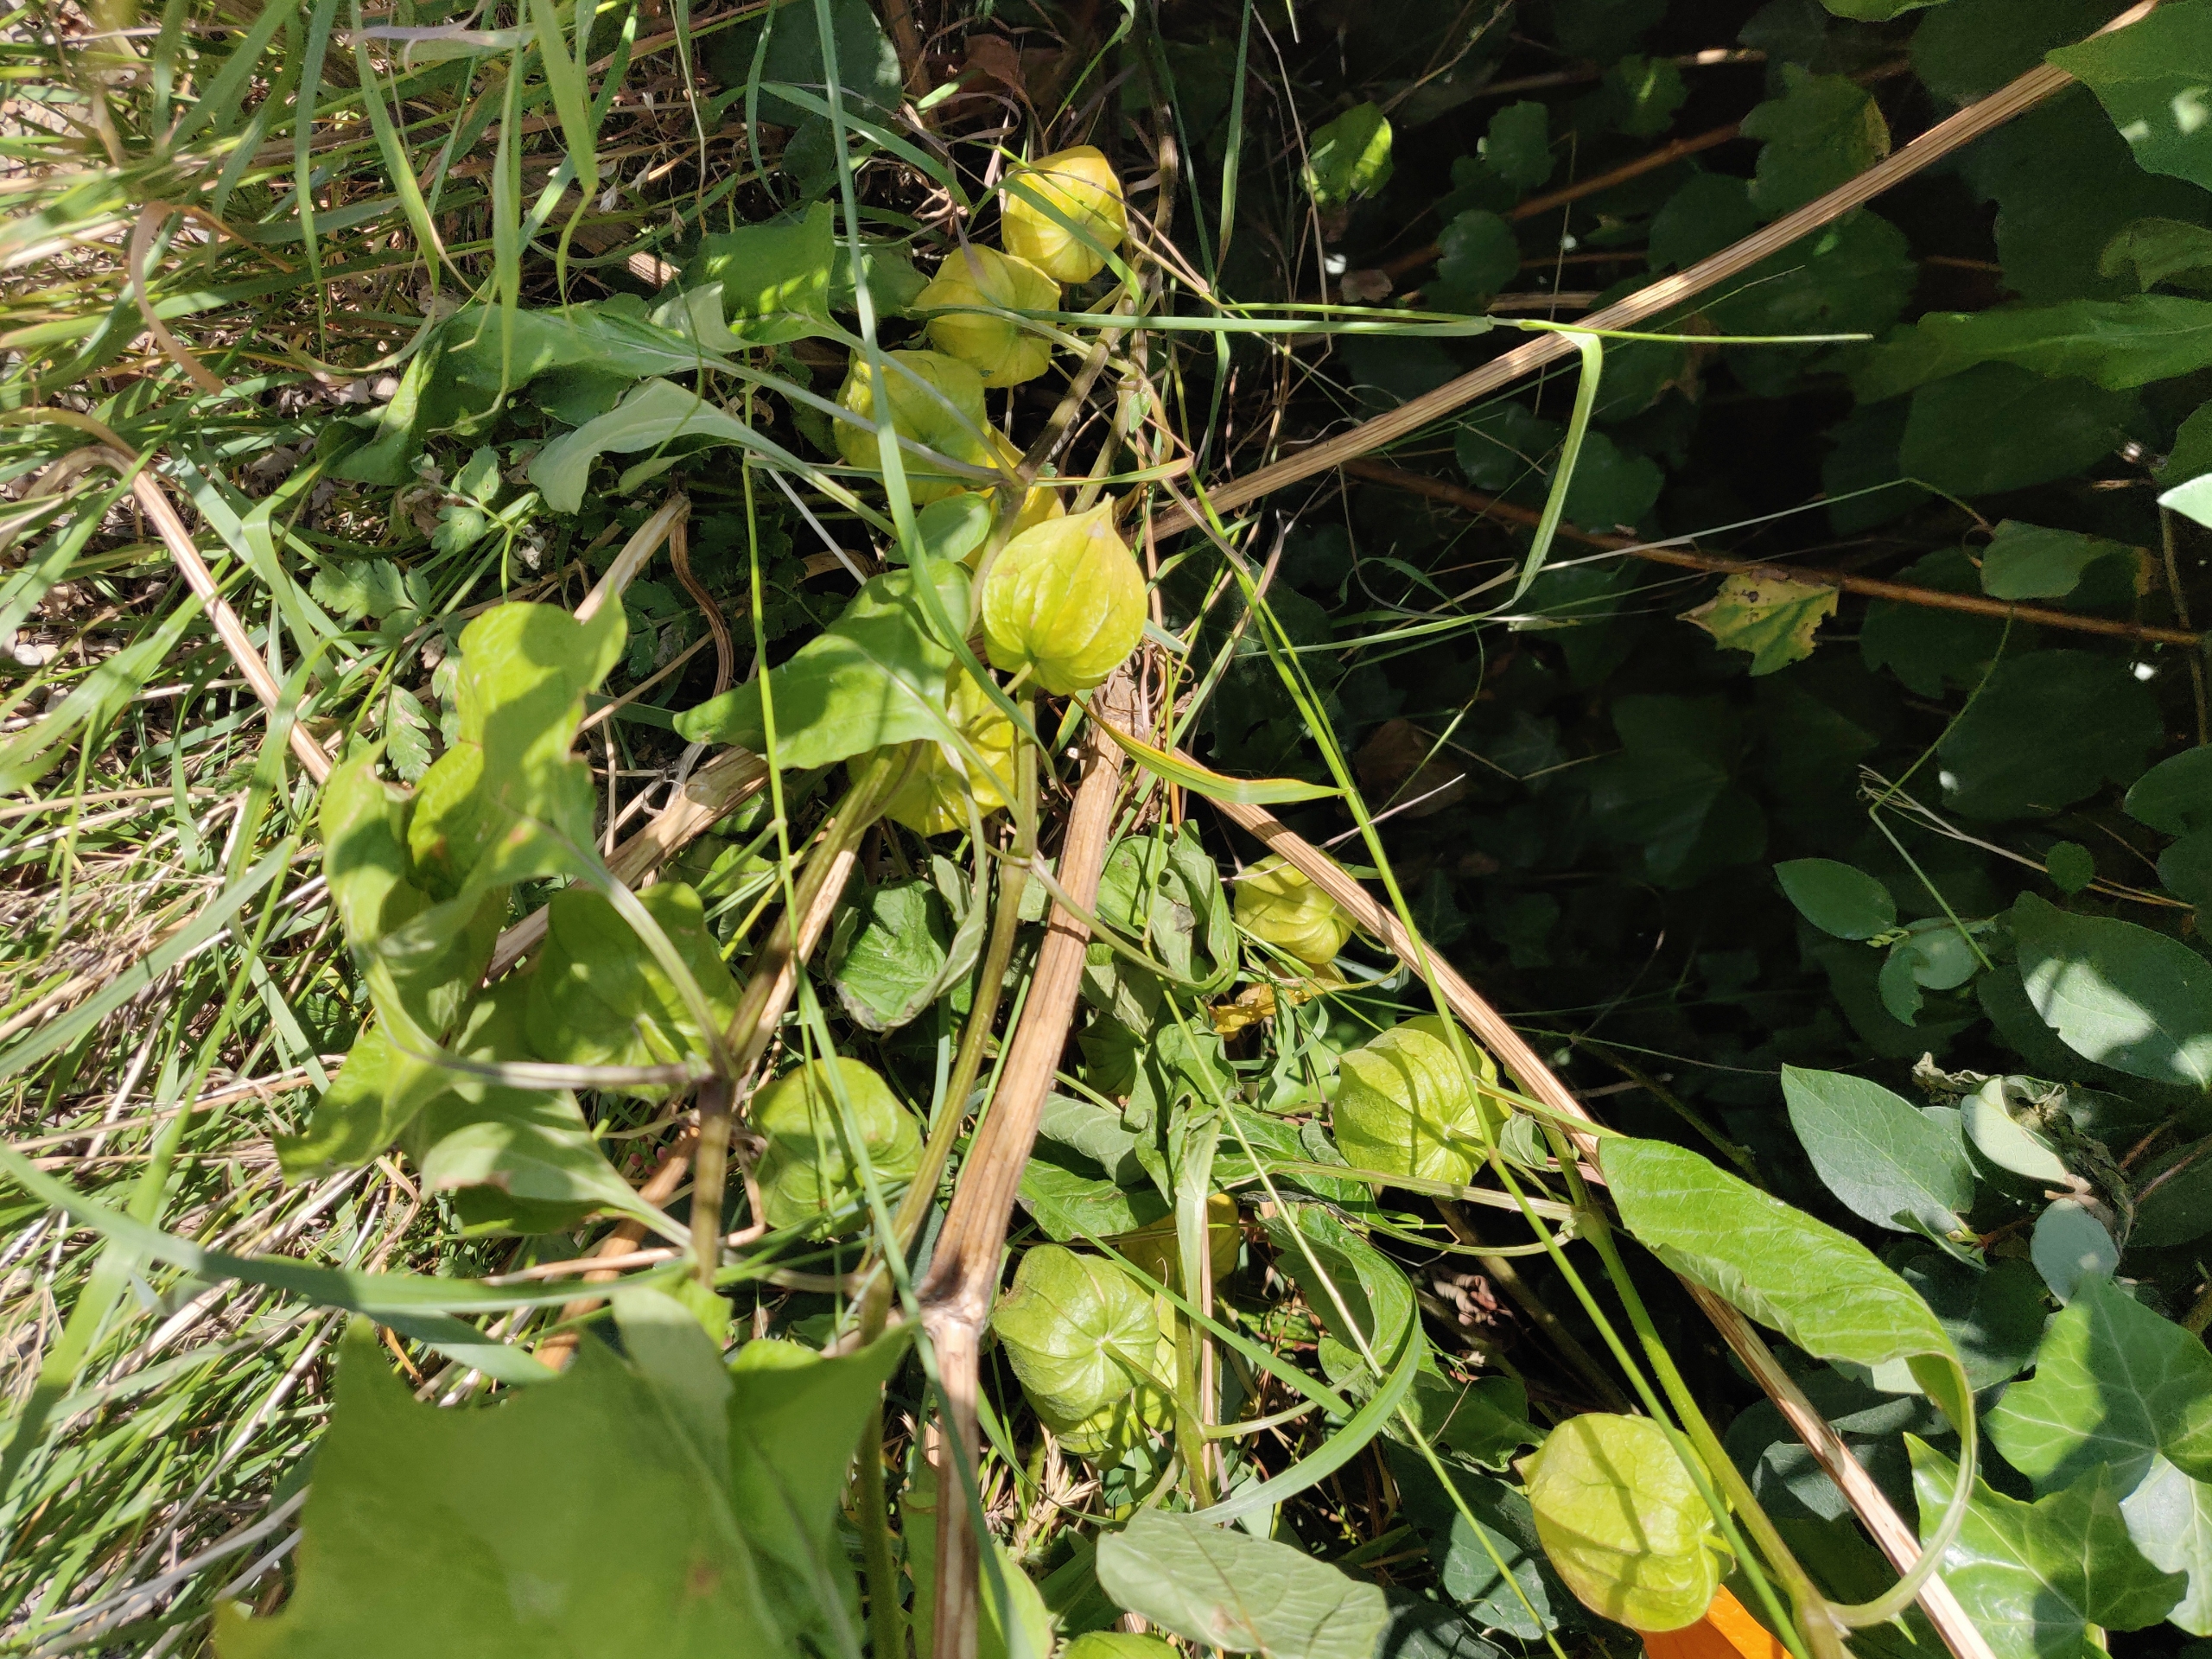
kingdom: Plantae
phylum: Tracheophyta
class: Magnoliopsida
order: Solanales
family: Solanaceae
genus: Physalis
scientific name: Physalis peruviana
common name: Ananaskirsebær
